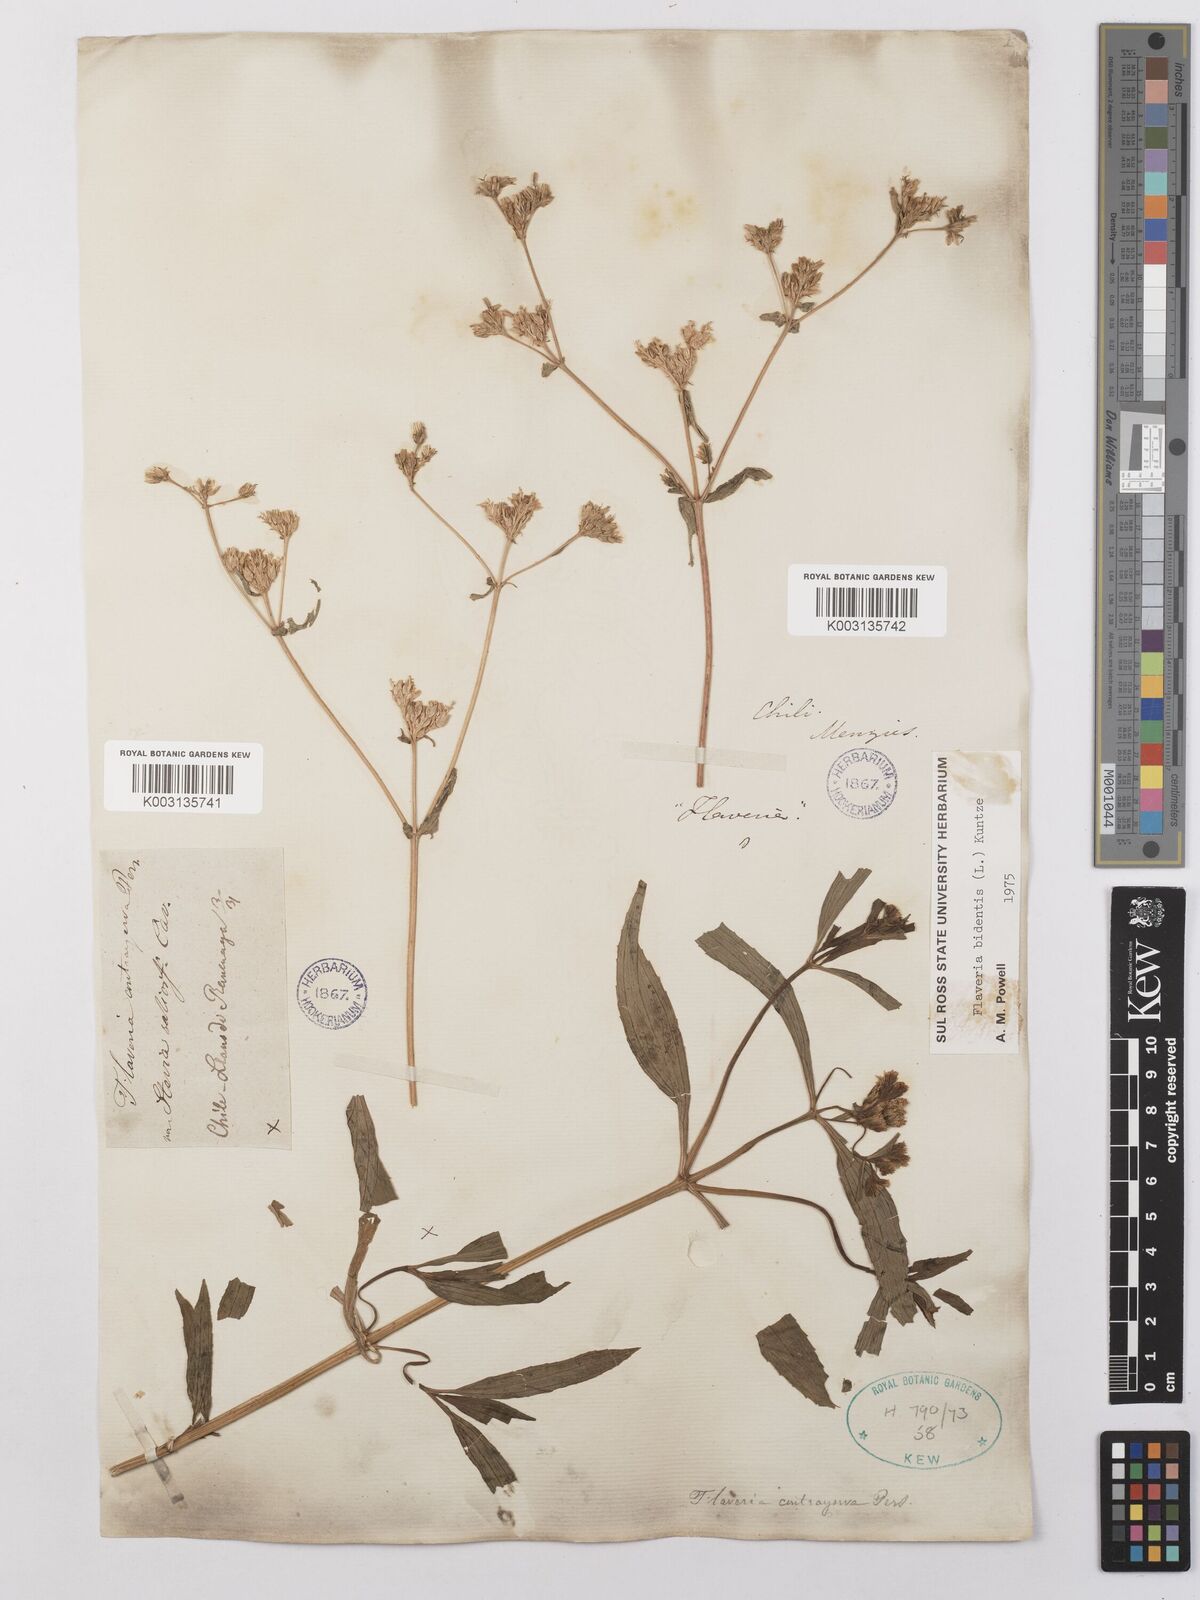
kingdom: Plantae
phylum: Tracheophyta
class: Magnoliopsida
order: Asterales
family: Asteraceae
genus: Flaveria
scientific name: Flaveria bidentis
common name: Coastal plain yellowtops
